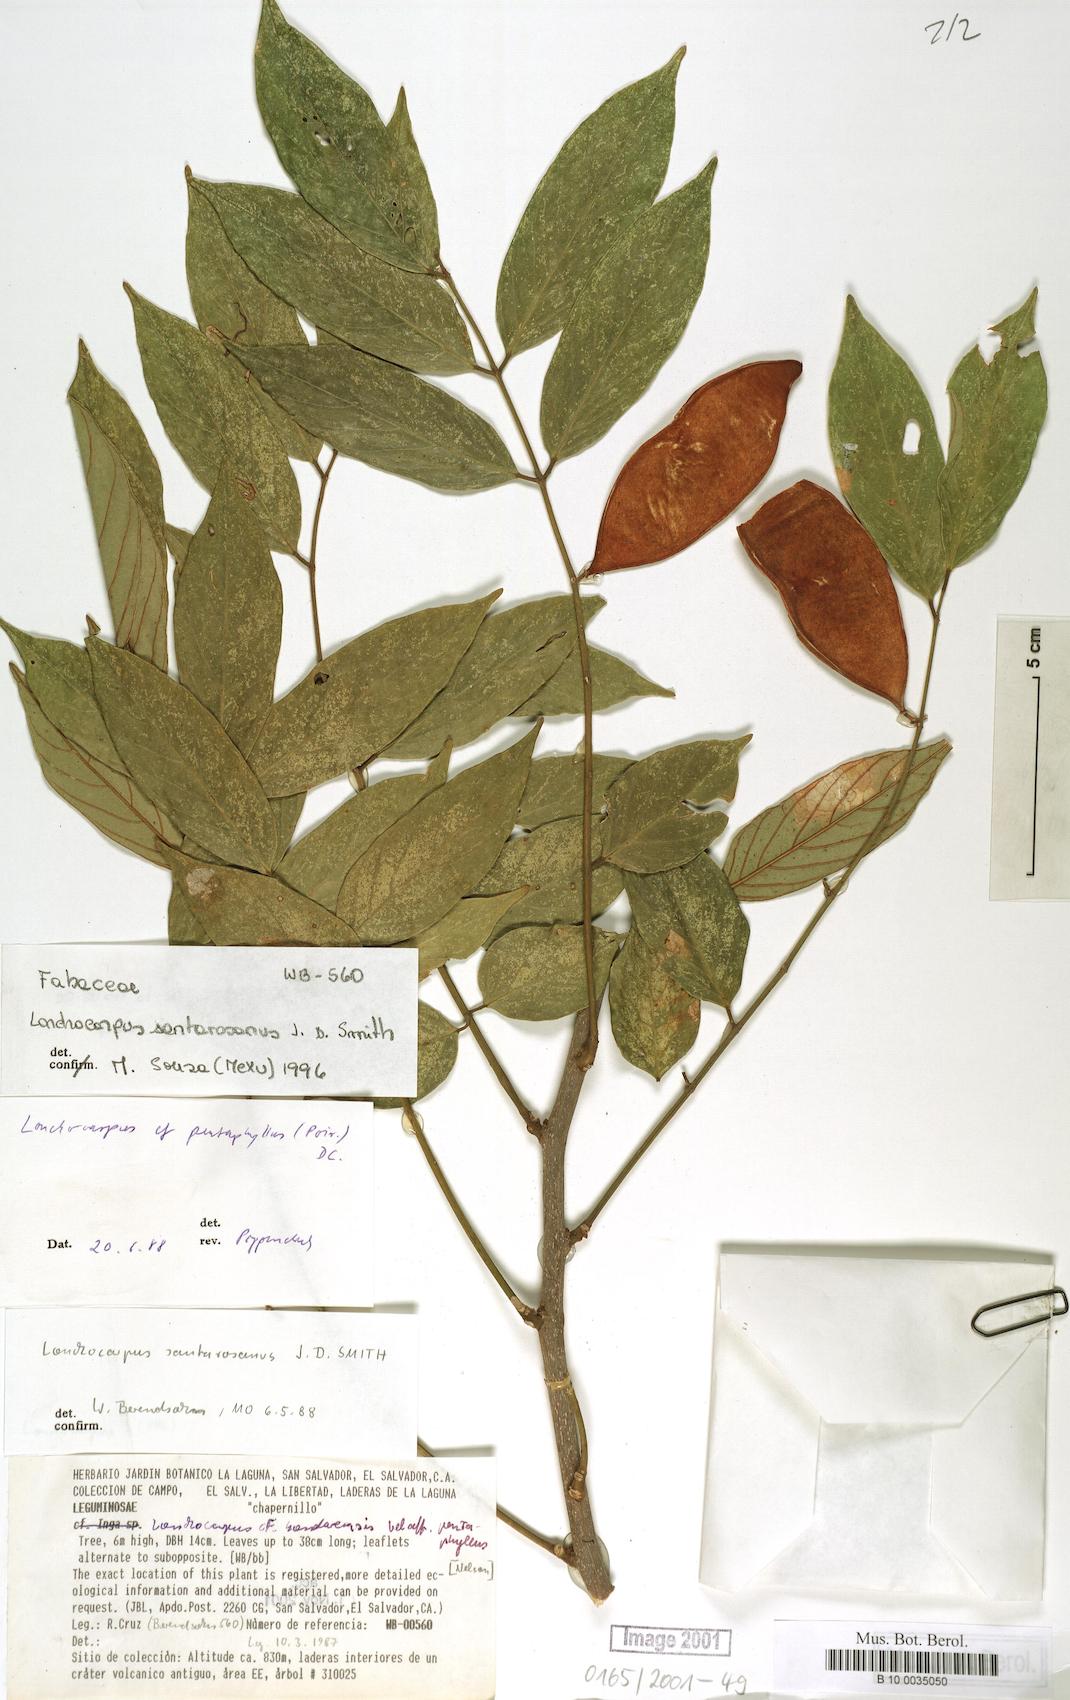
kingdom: Plantae
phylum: Tracheophyta
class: Magnoliopsida
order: Fabales
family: Fabaceae
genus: Lonchocarpus
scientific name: Lonchocarpus santarosanus
